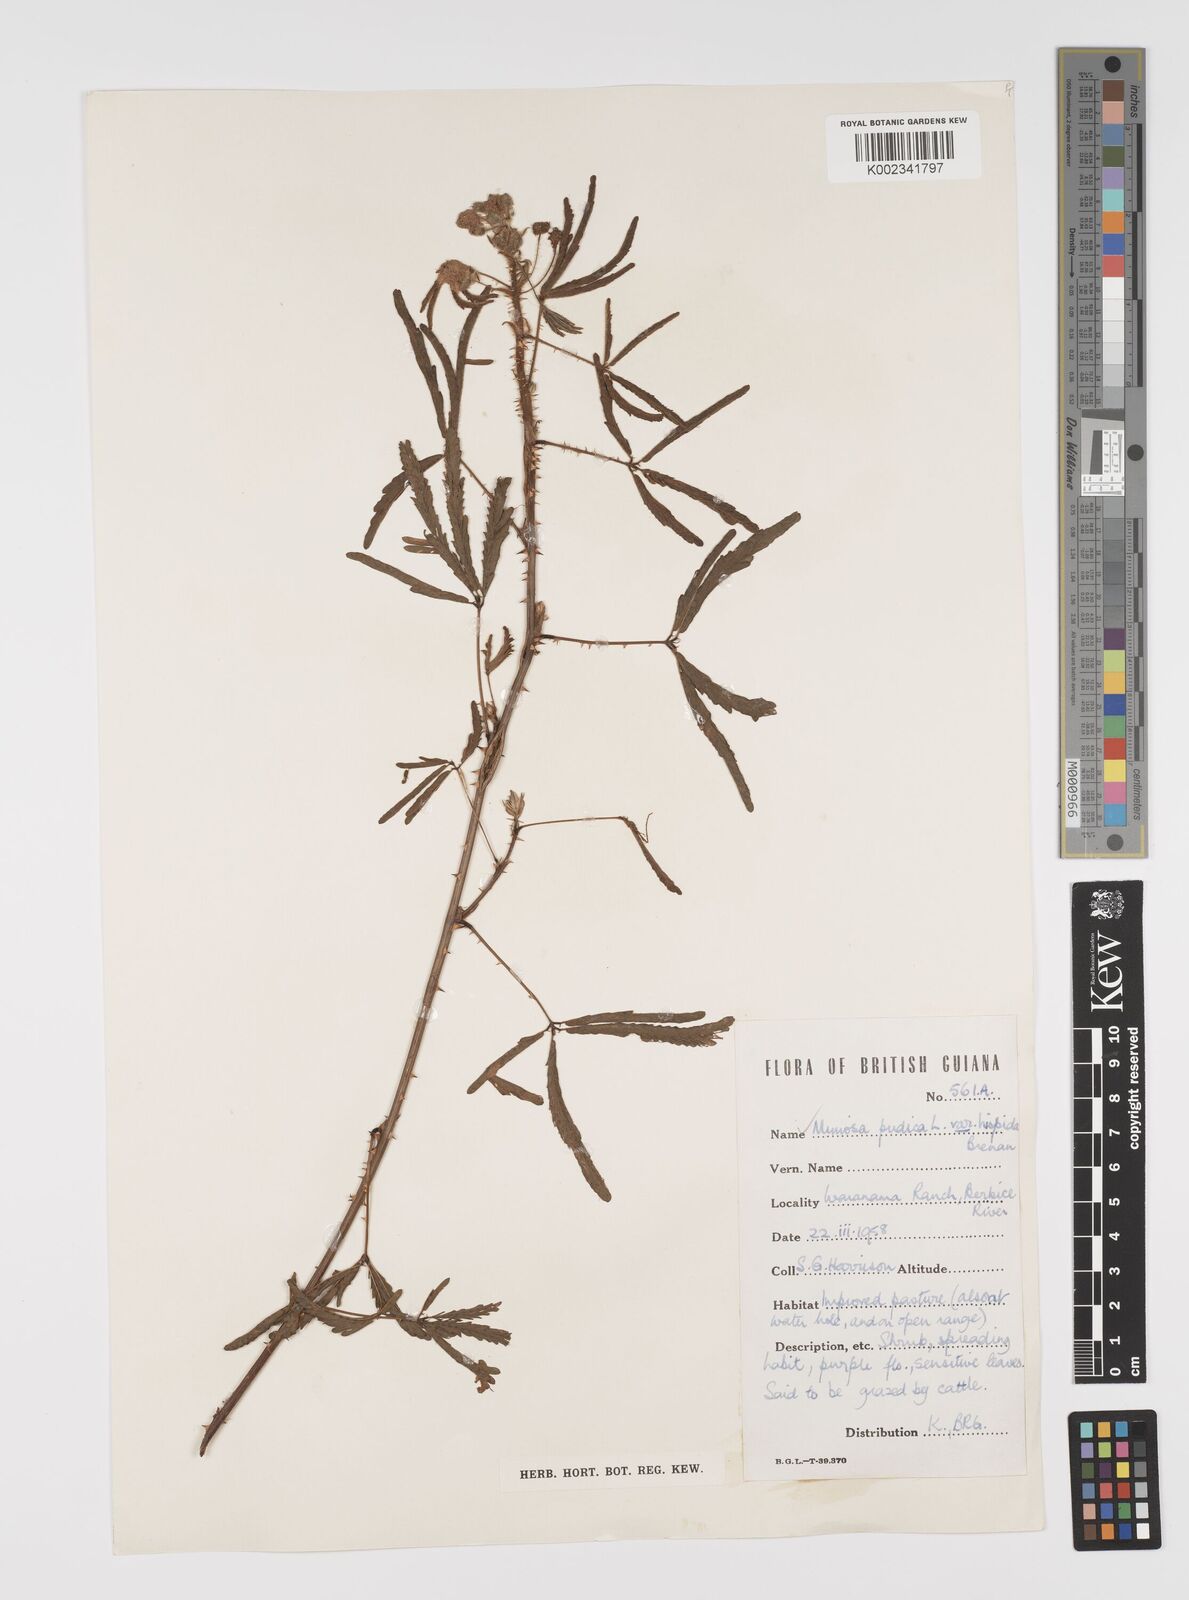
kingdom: Plantae
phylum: Tracheophyta
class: Magnoliopsida
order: Fabales
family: Fabaceae
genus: Mimosa
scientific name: Mimosa pudica
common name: Sensitive plant
